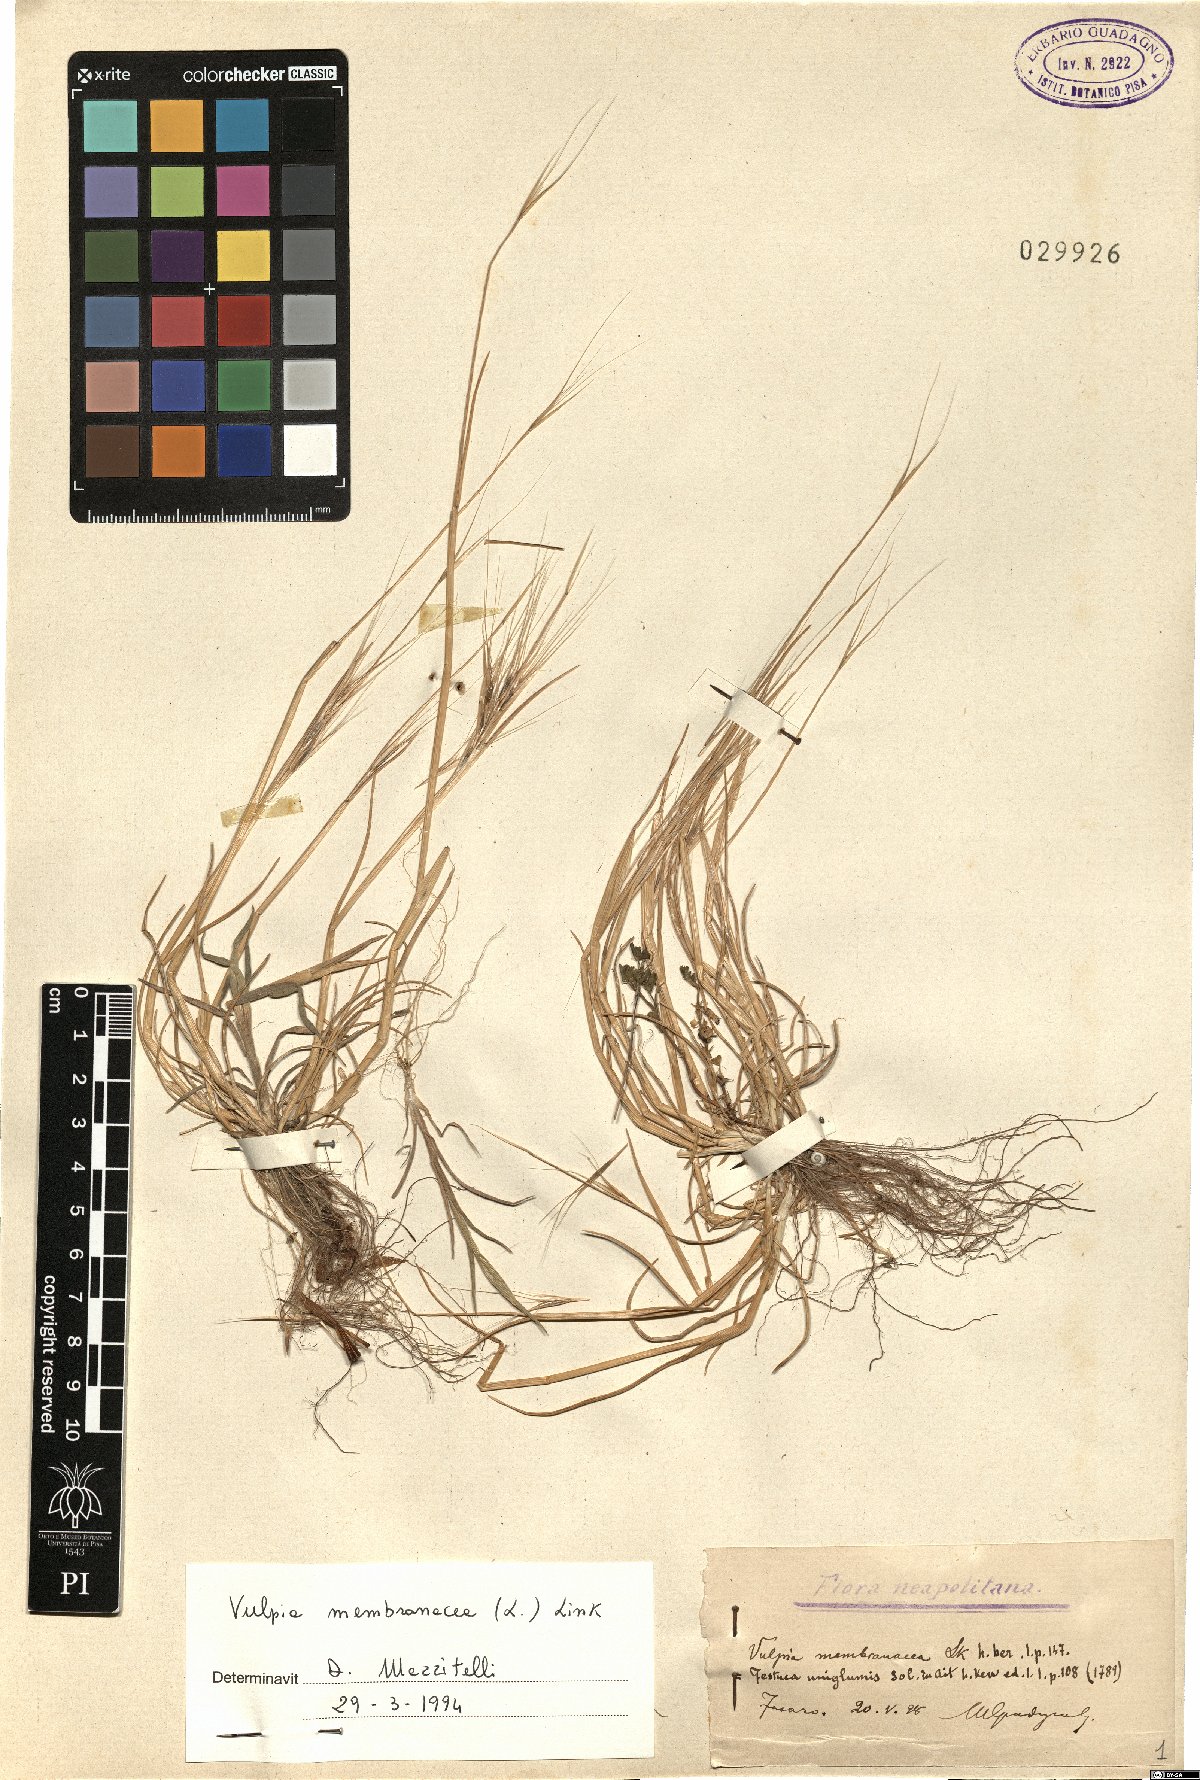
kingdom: Plantae
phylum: Tracheophyta
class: Liliopsida
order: Poales
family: Poaceae
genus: Festuca
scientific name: Festuca membranacea
